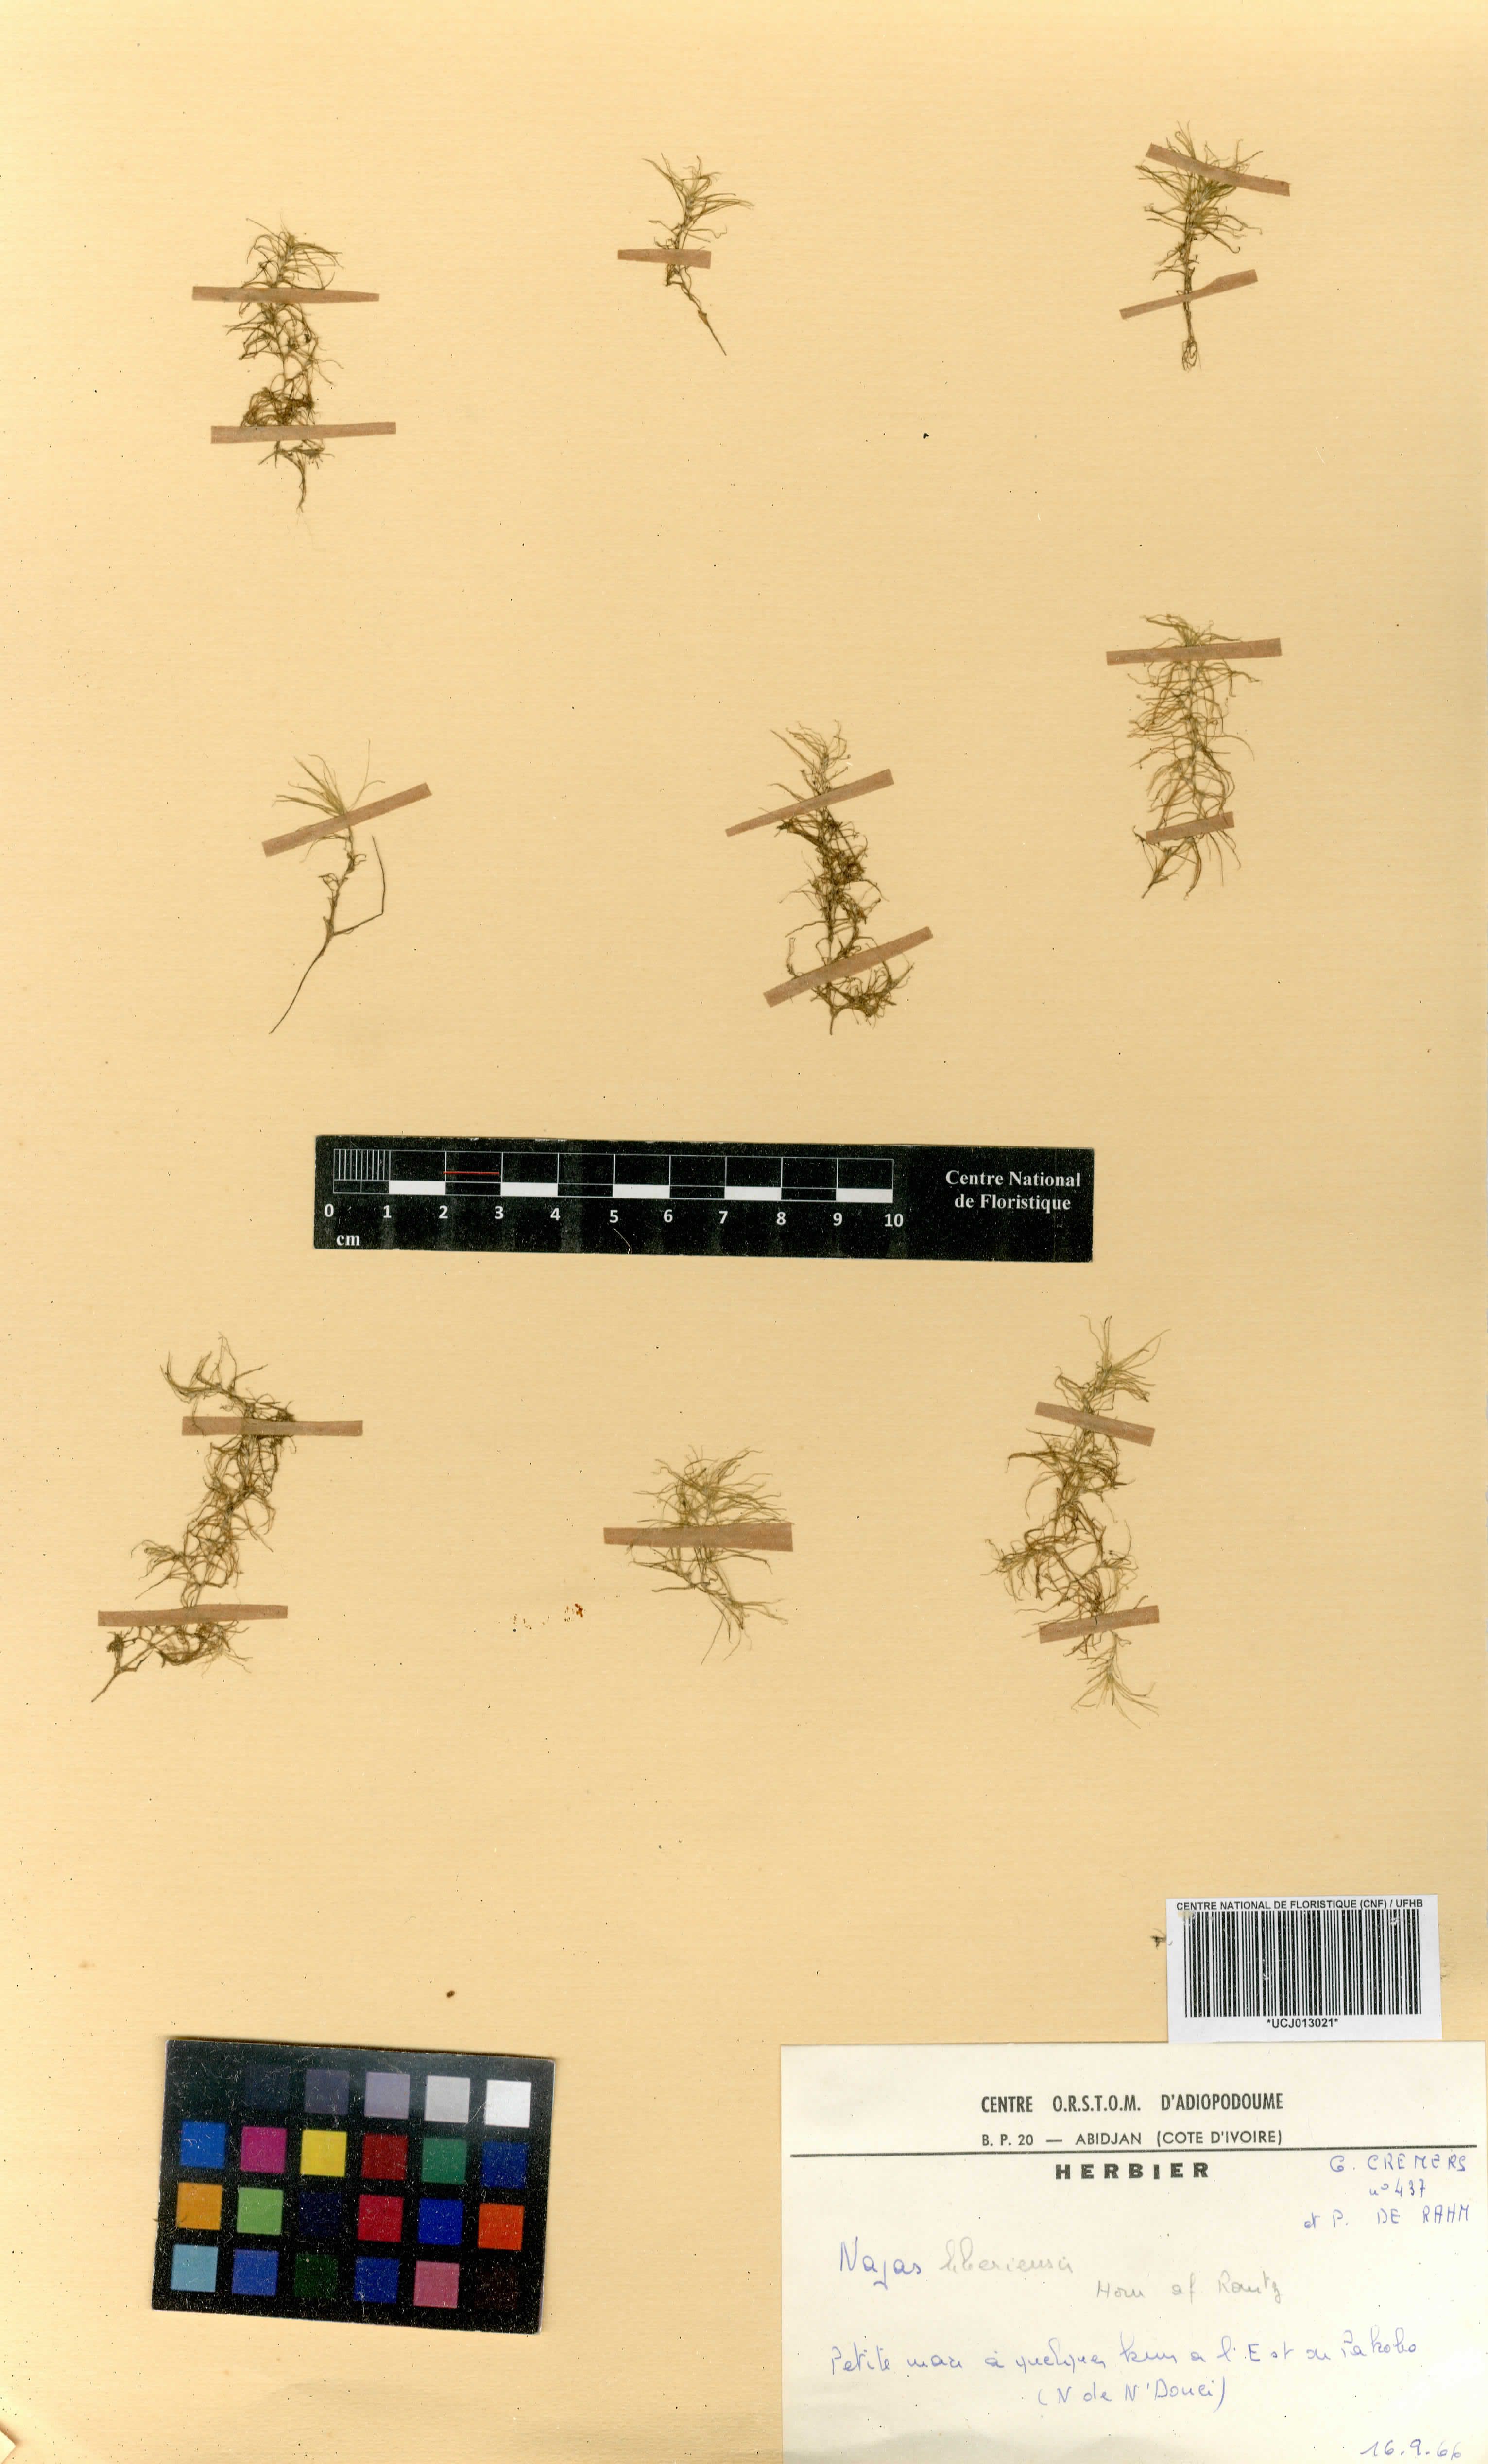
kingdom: Plantae
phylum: Tracheophyta
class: Liliopsida
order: Alismatales
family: Hydrocharitaceae
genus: Najas
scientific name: Najas baldwinii
